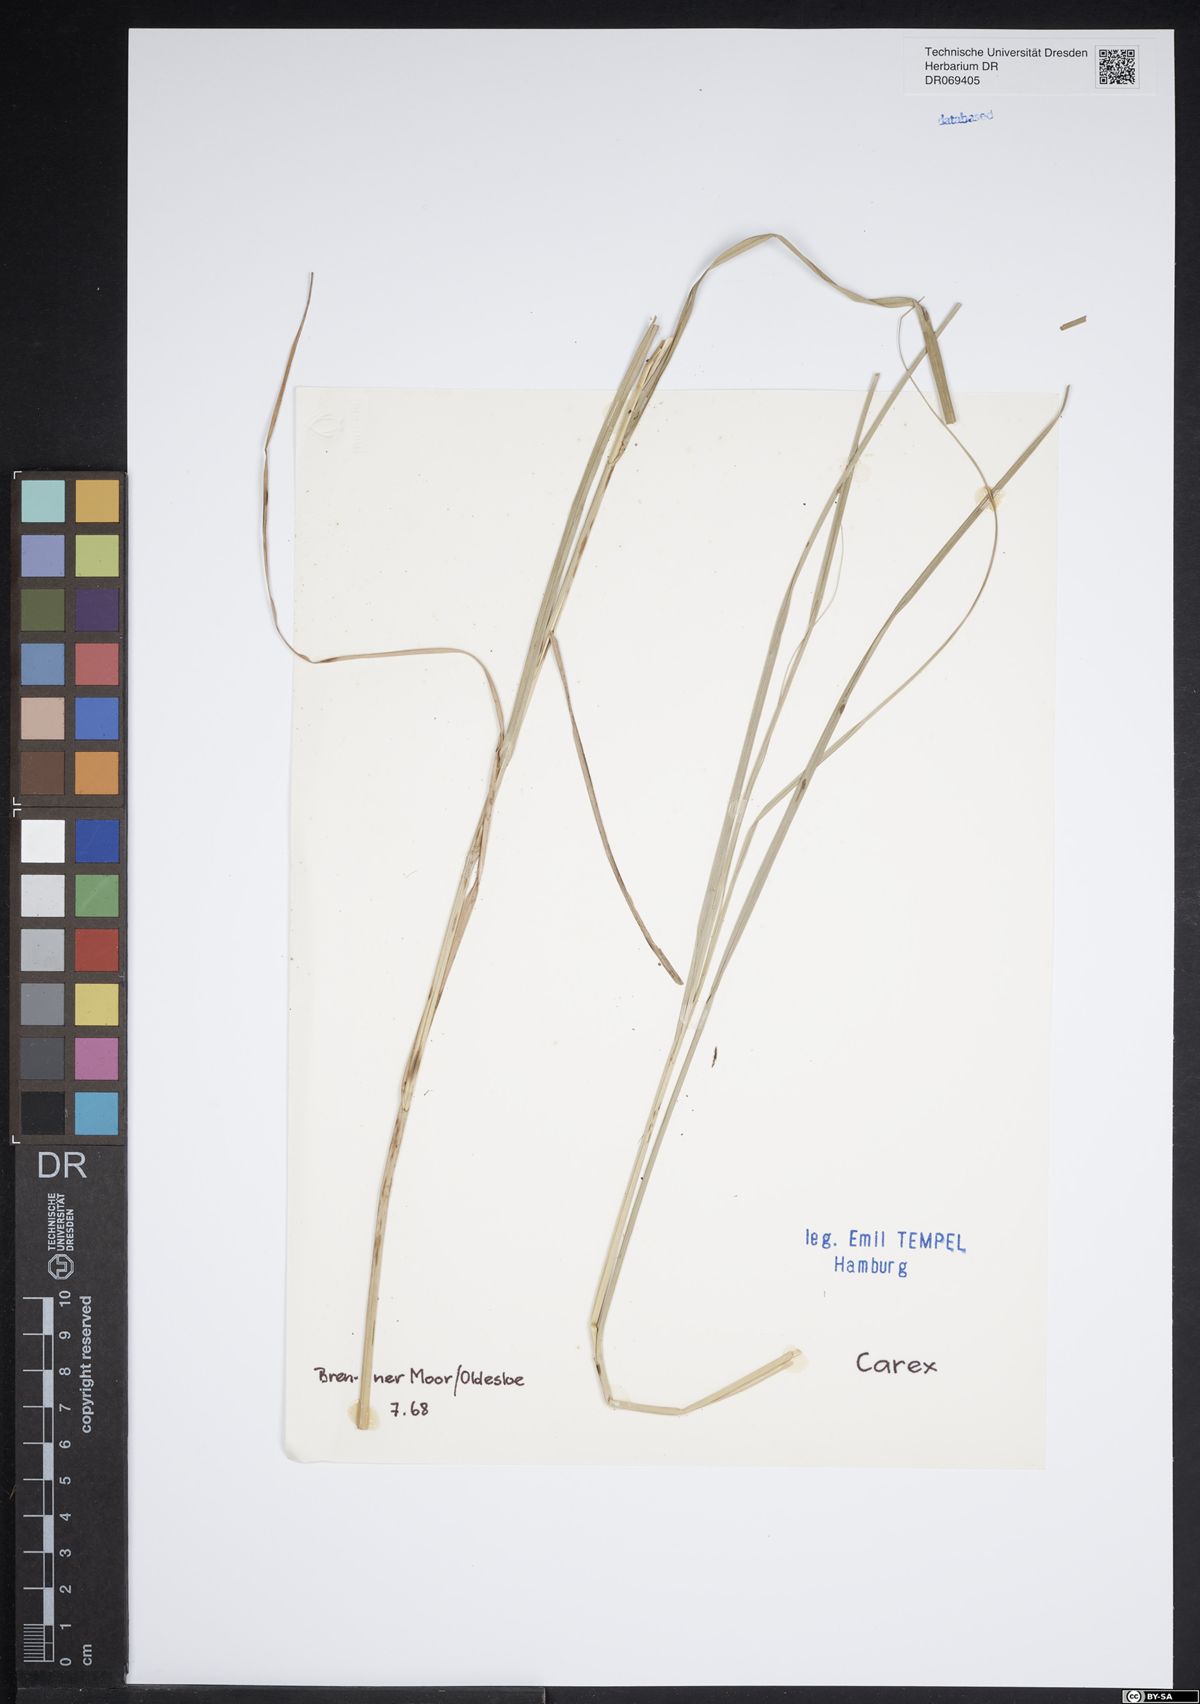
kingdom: Plantae
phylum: Tracheophyta
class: Liliopsida
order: Poales
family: Cyperaceae
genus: Carex
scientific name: Carex
